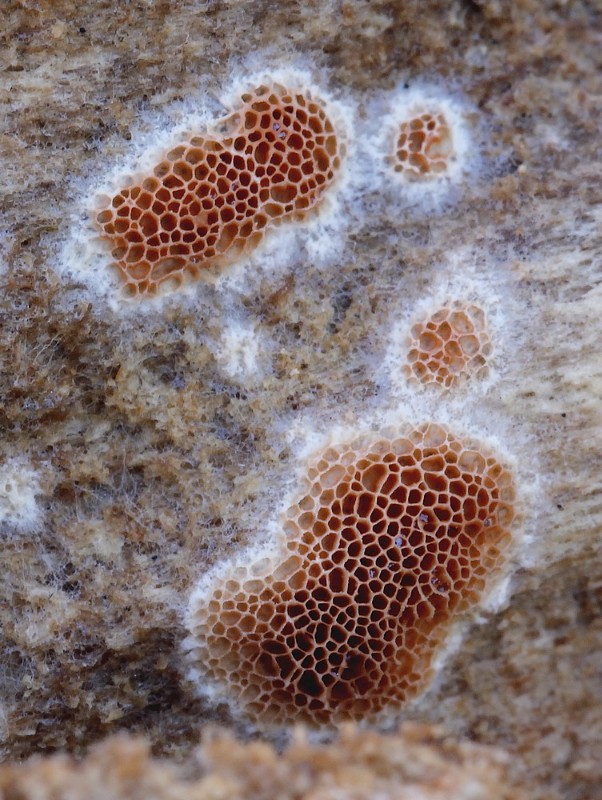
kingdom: Fungi
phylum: Basidiomycota
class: Agaricomycetes
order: Polyporales
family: Irpicaceae
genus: Ceriporia
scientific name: Ceriporia
